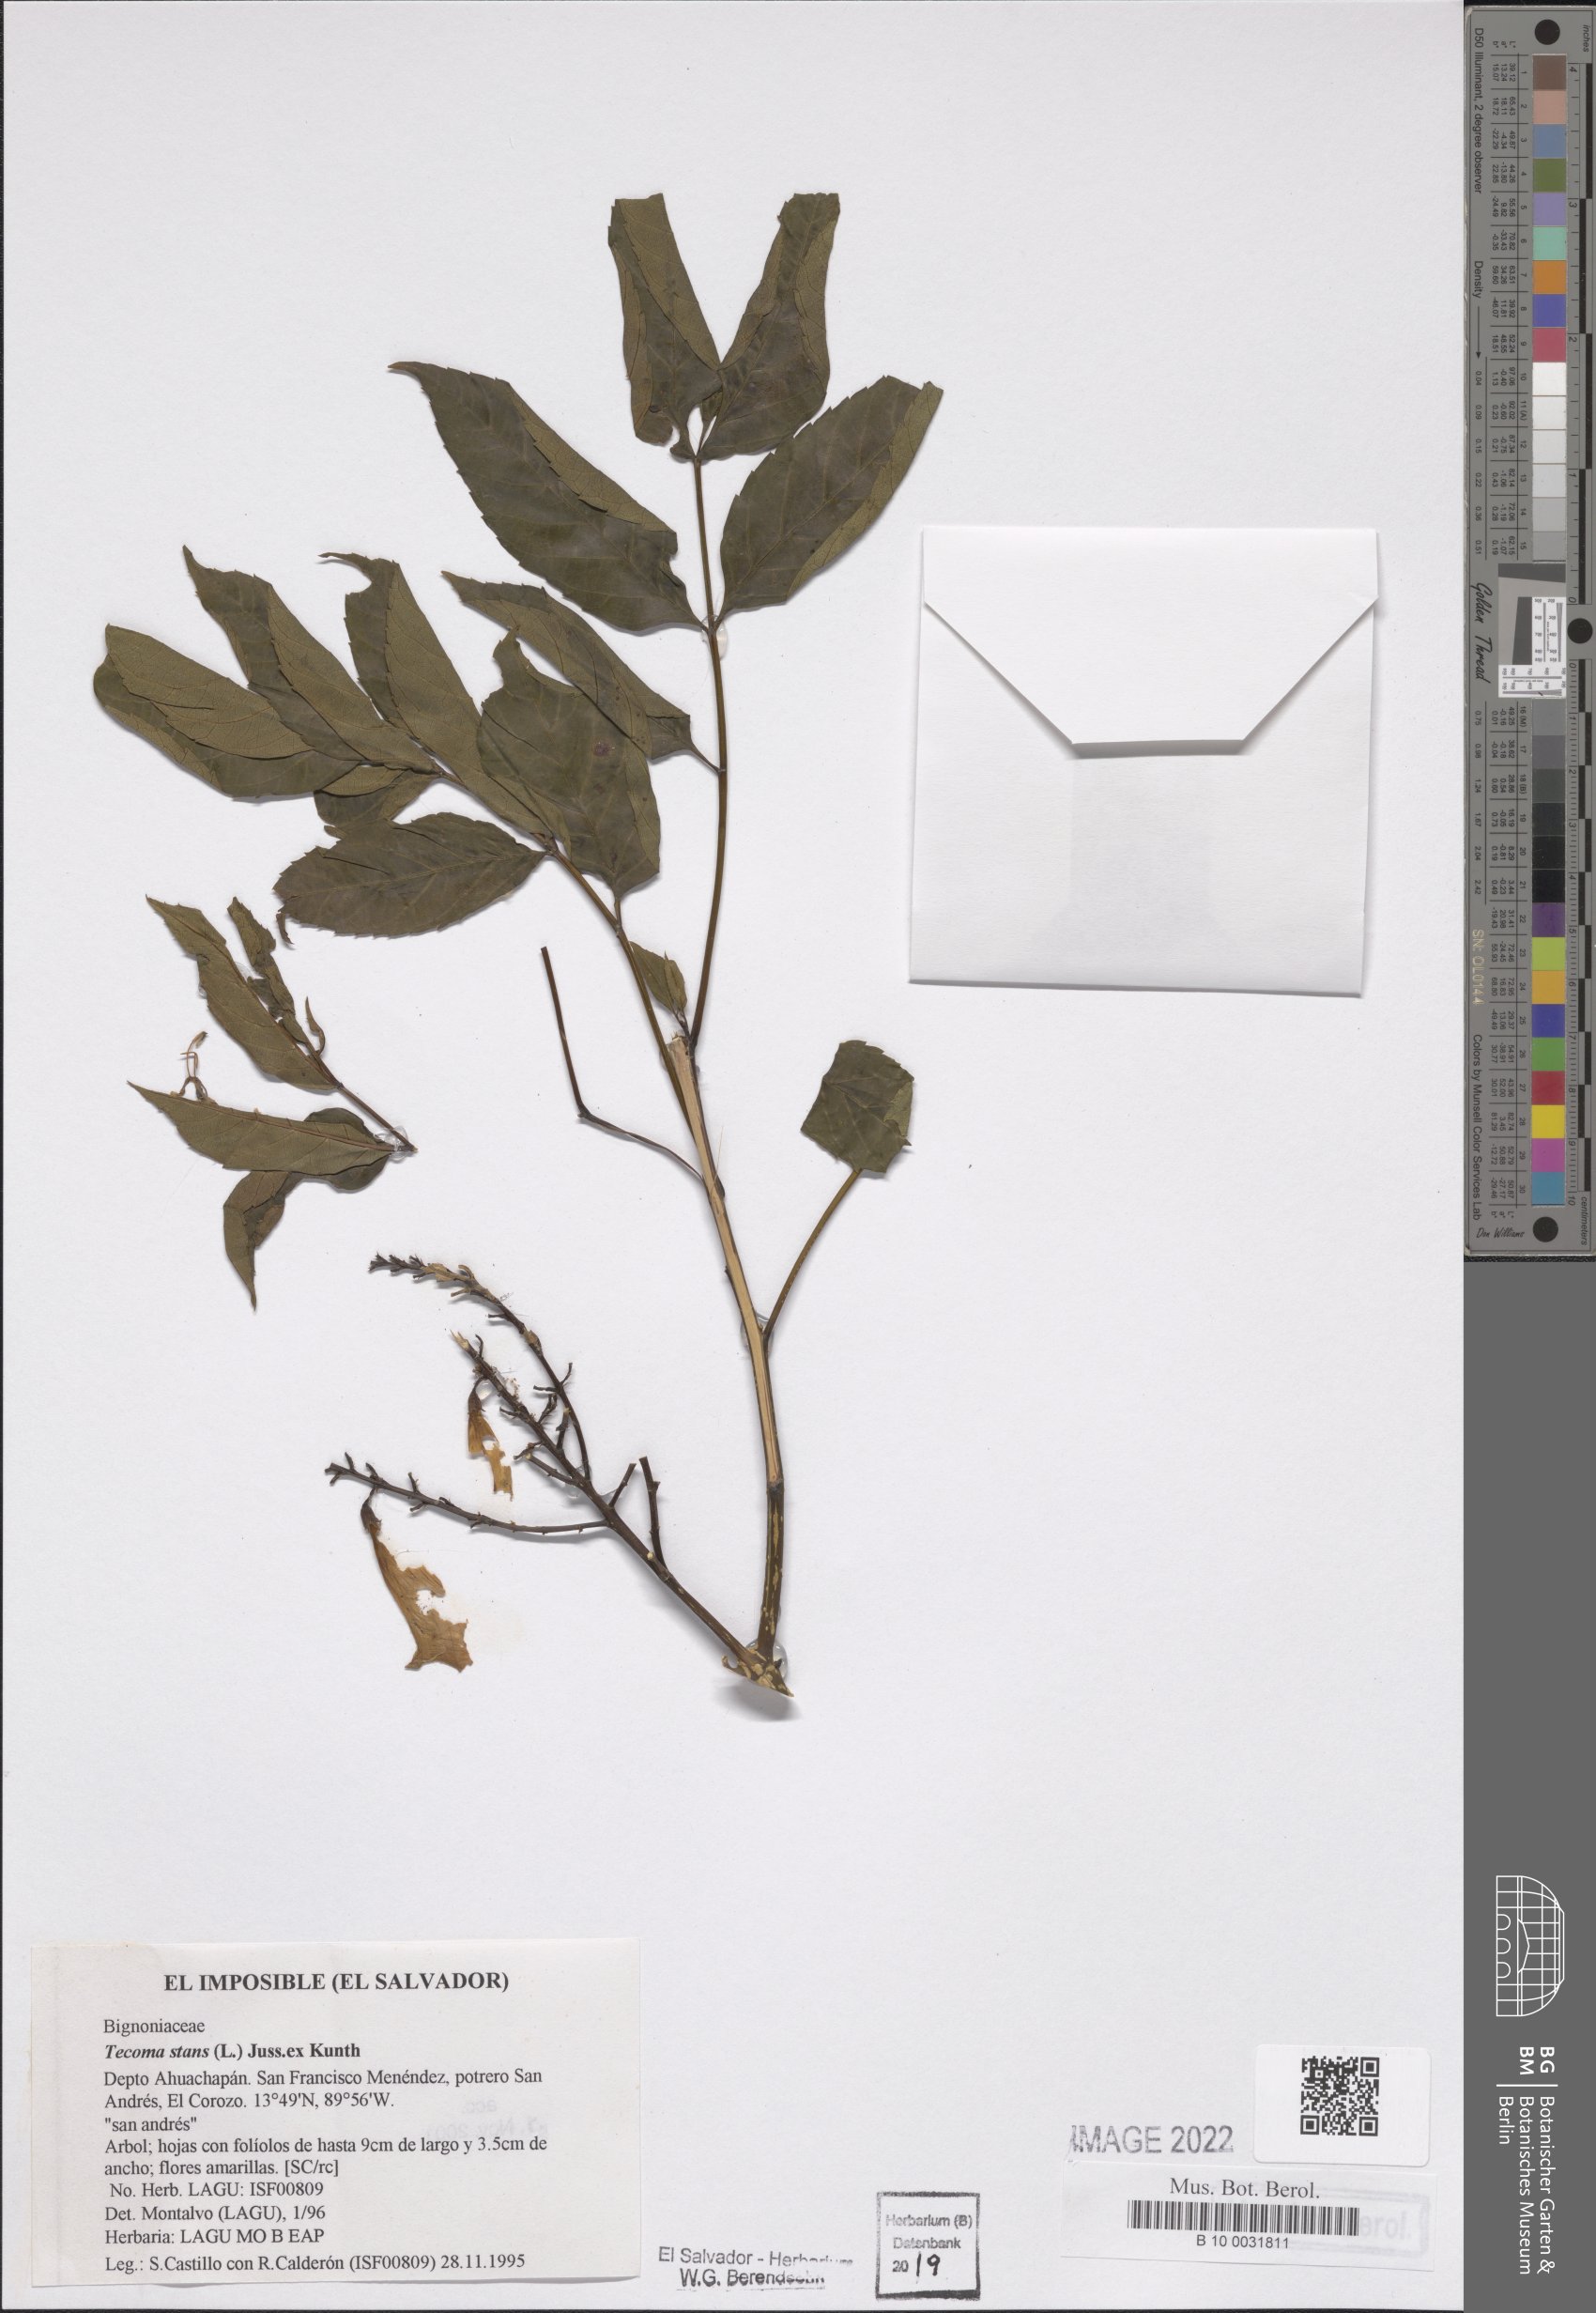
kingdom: Plantae
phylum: Tracheophyta
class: Magnoliopsida
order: Lamiales
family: Bignoniaceae
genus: Tecoma
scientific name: Tecoma stans
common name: Yellow trumpetbush
